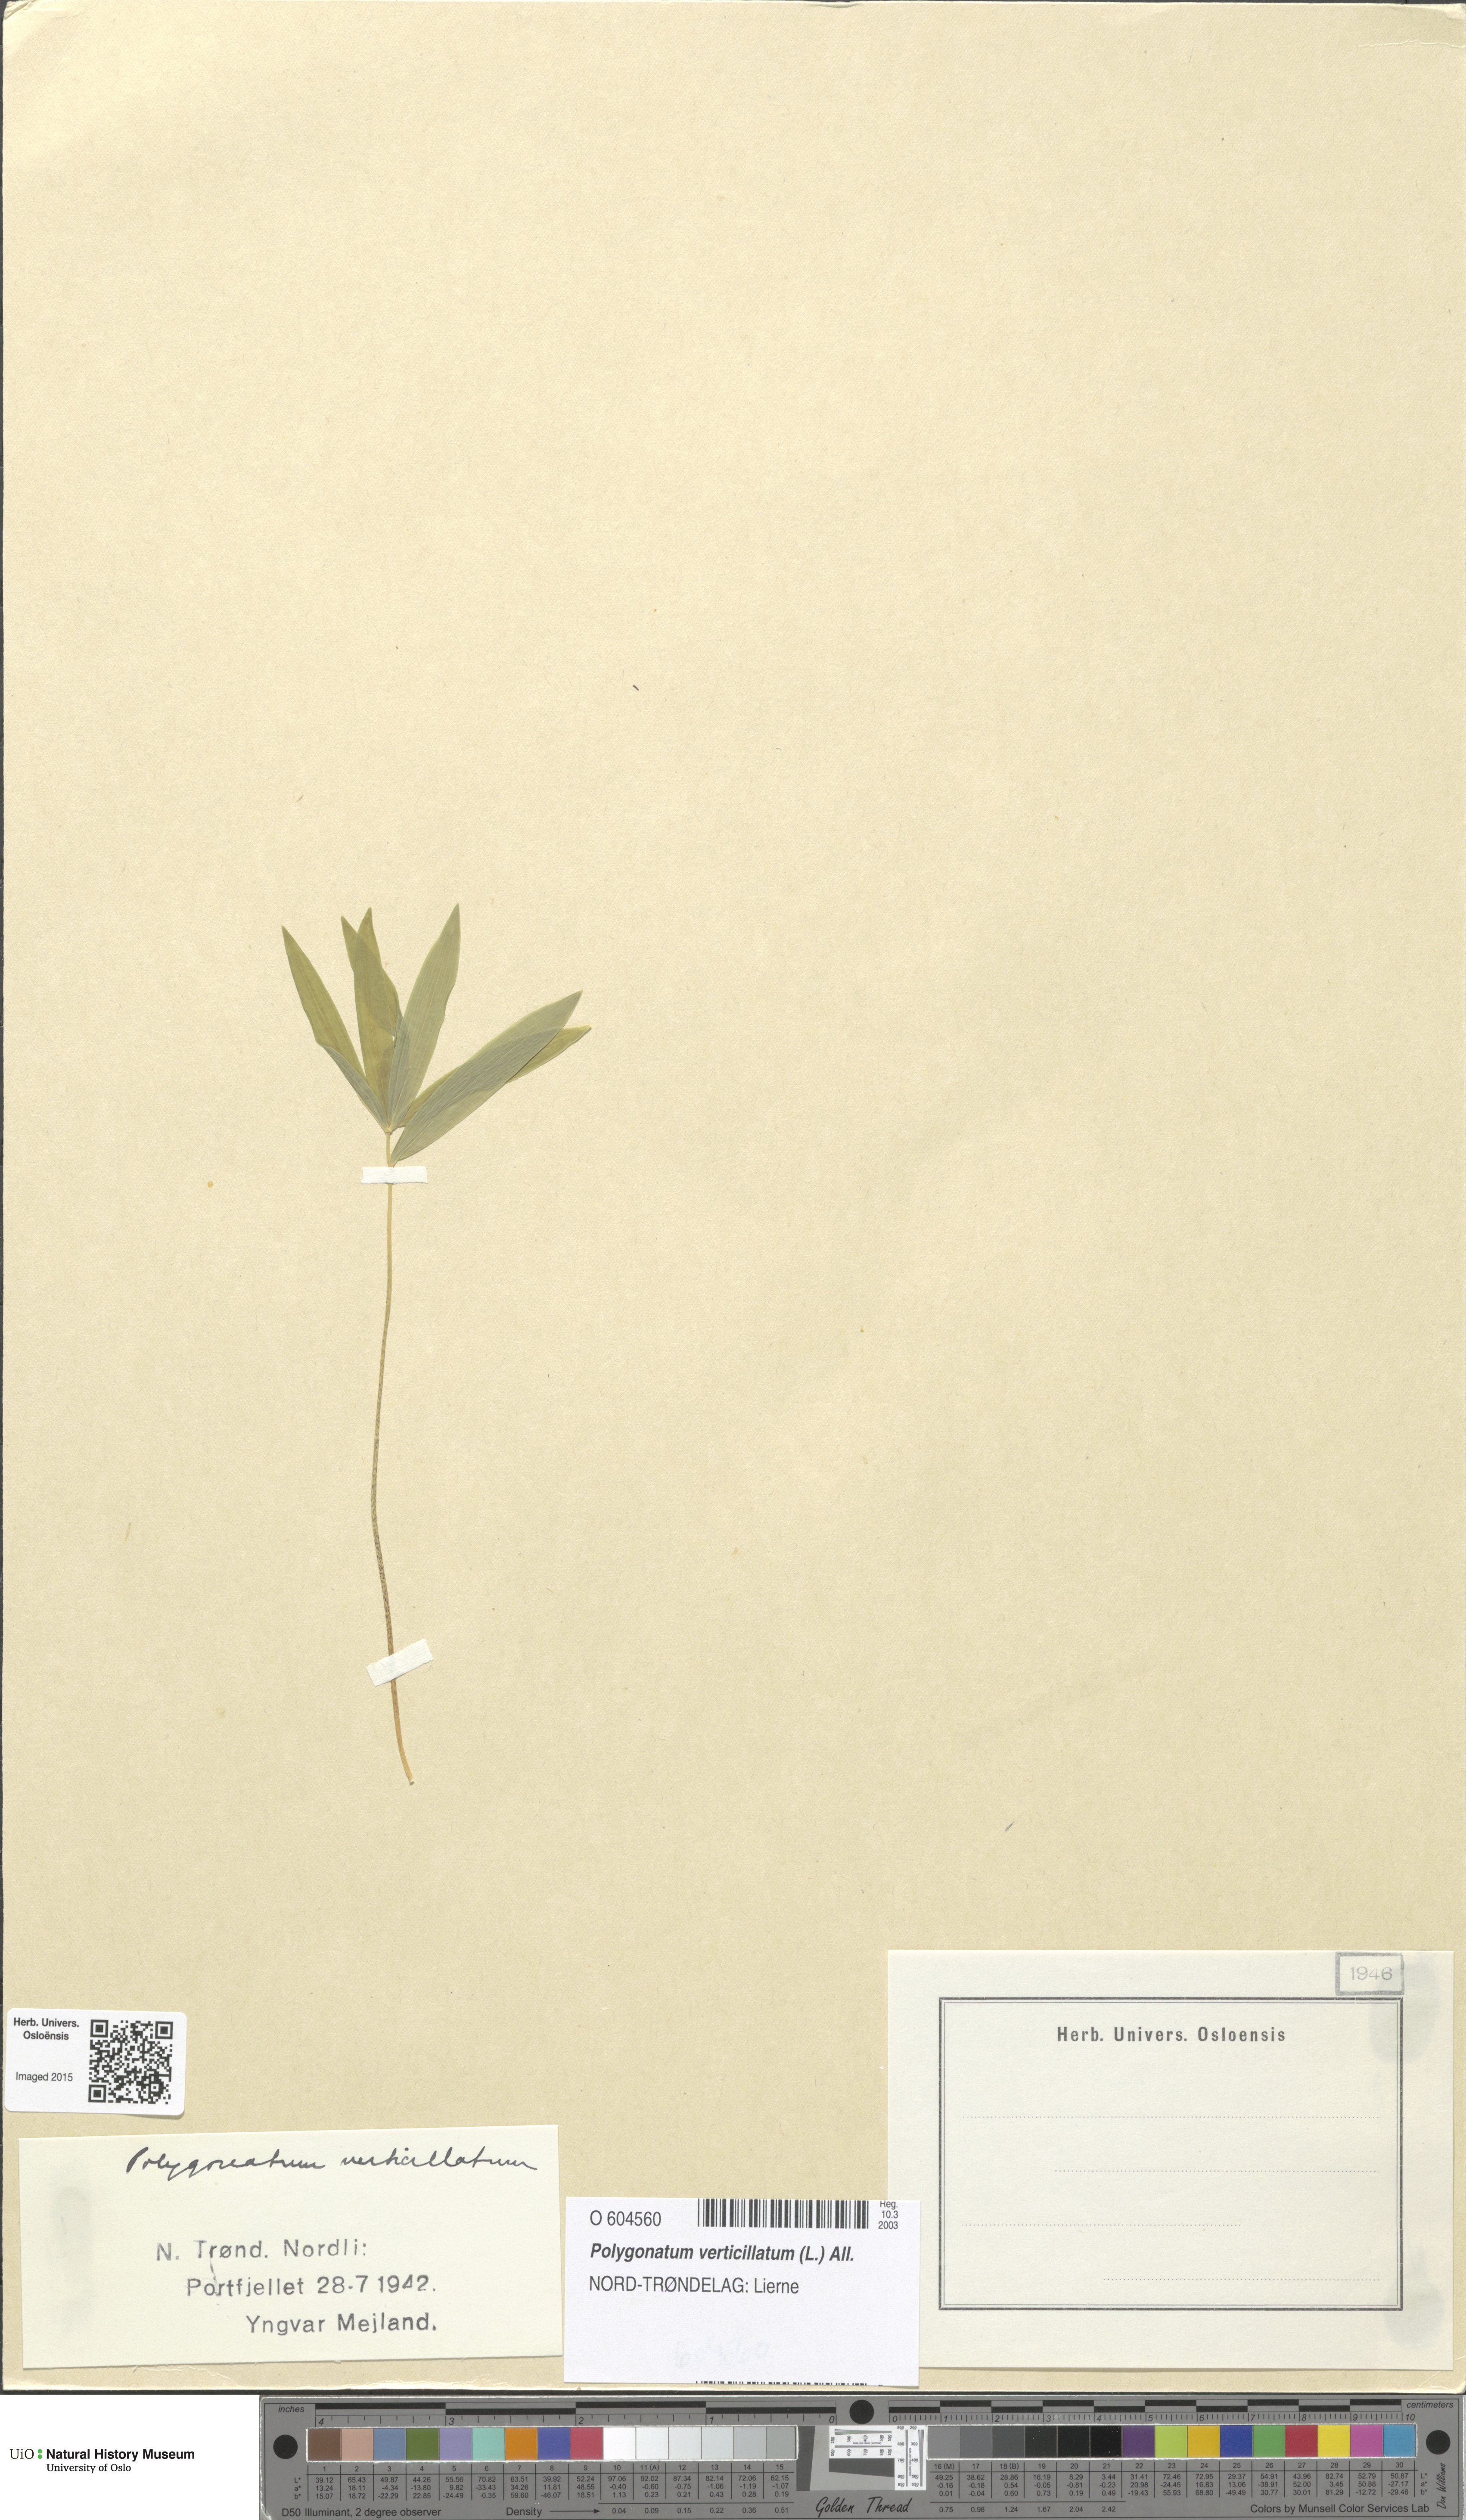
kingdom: Plantae
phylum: Tracheophyta
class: Liliopsida
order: Asparagales
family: Asparagaceae
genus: Polygonatum
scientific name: Polygonatum verticillatum
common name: Whorled solomon's-seal
